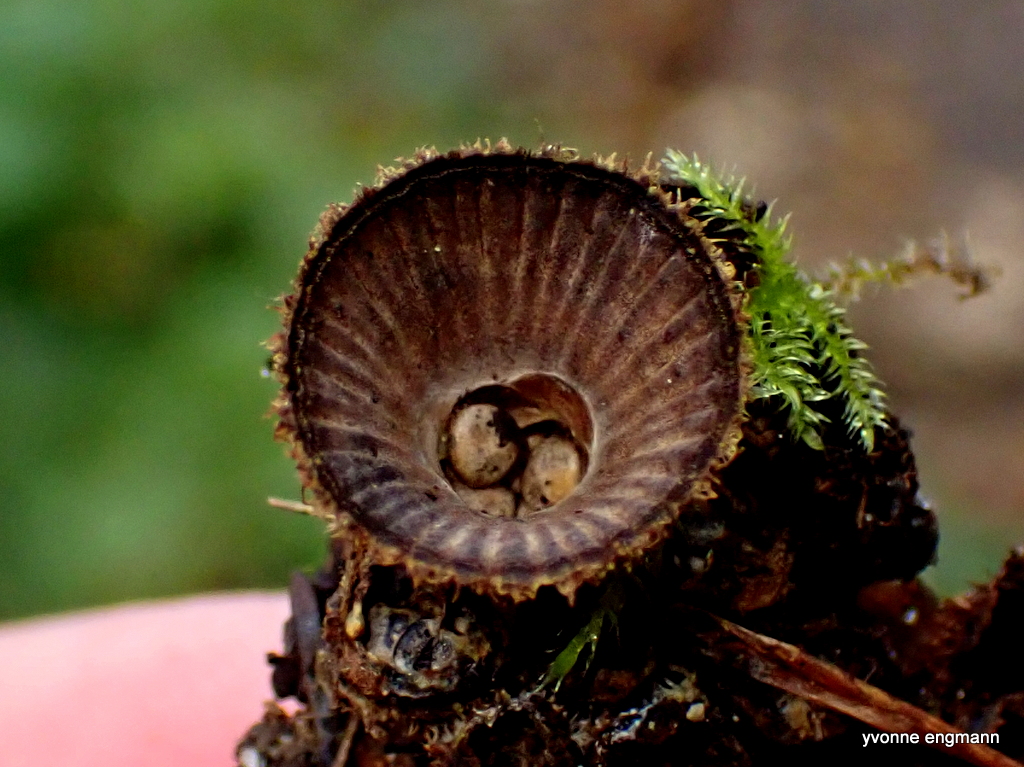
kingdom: Fungi
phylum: Basidiomycota
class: Agaricomycetes
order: Agaricales
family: Agaricaceae
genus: Cyathus
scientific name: Cyathus striatus
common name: stribet redesvamp
